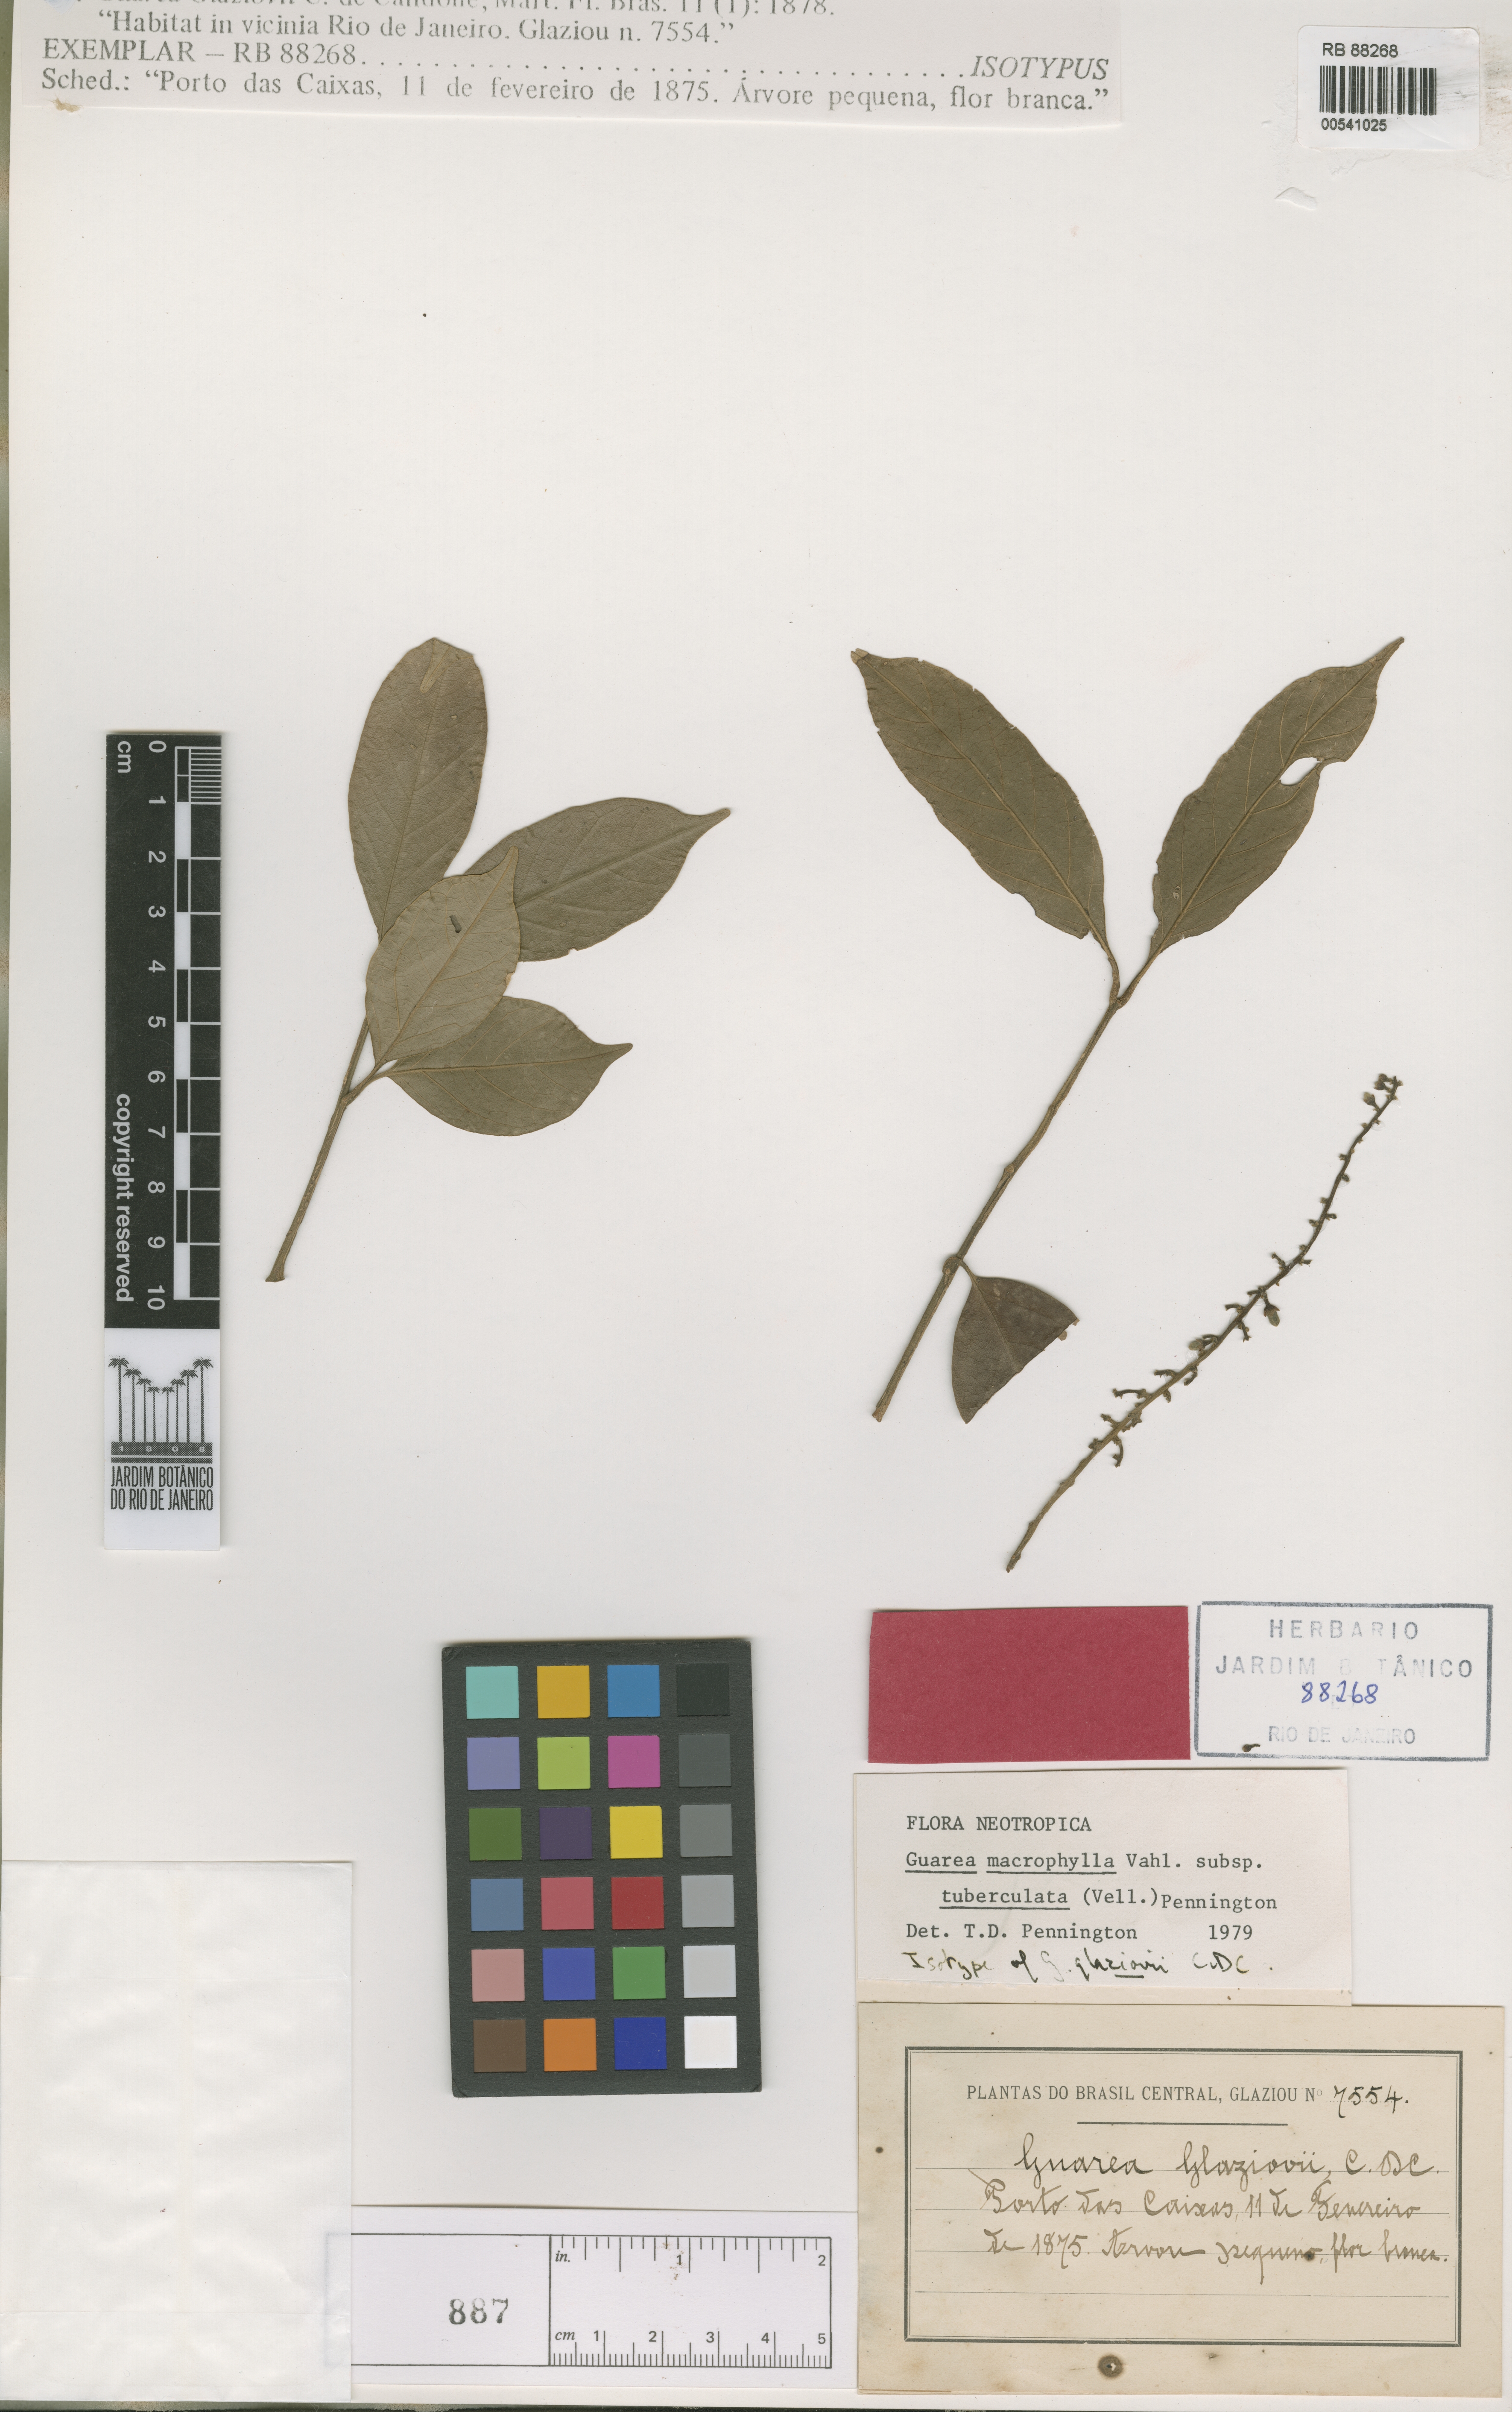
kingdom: Plantae
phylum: Tracheophyta
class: Magnoliopsida
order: Sapindales
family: Meliaceae
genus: Guarea
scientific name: Guarea macrophylla
